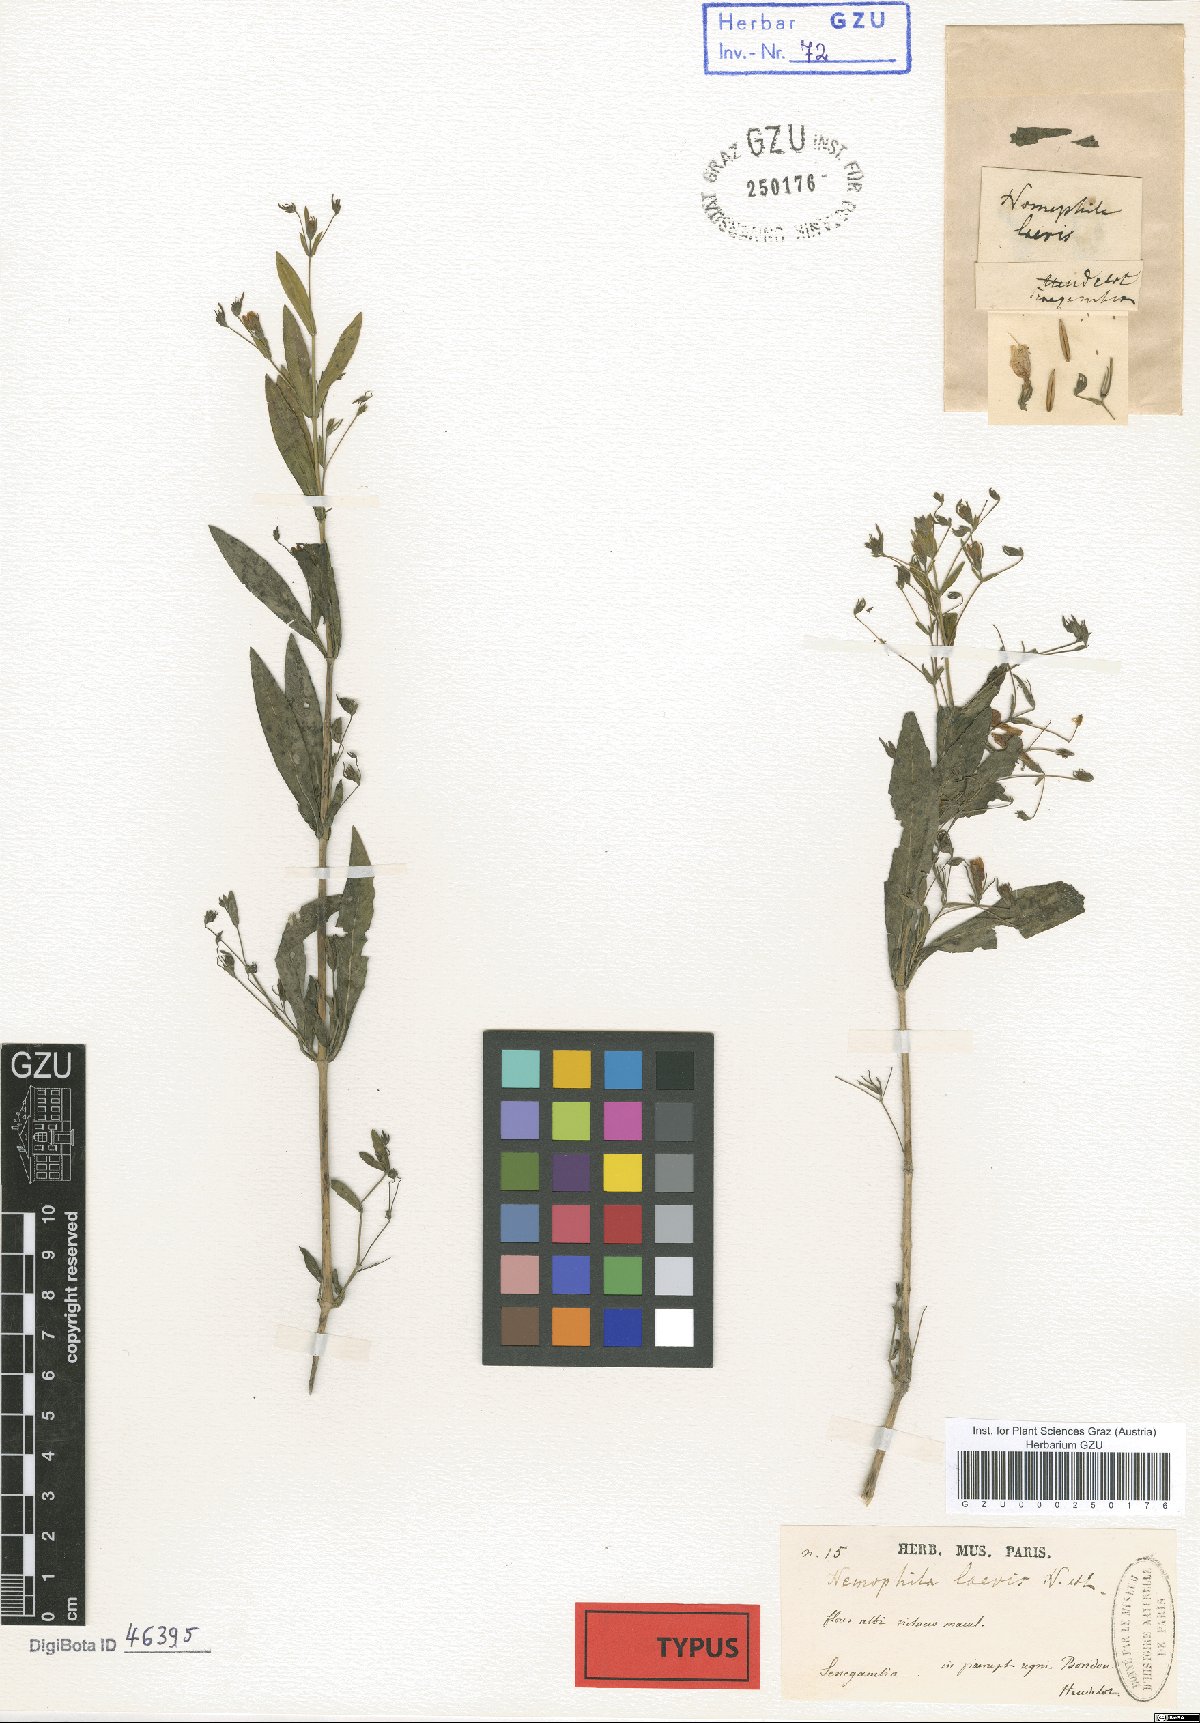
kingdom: Plantae
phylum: Tracheophyta
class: Magnoliopsida
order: Lamiales
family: Acanthaceae
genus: Hygrophila
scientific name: Hygrophila laevis
